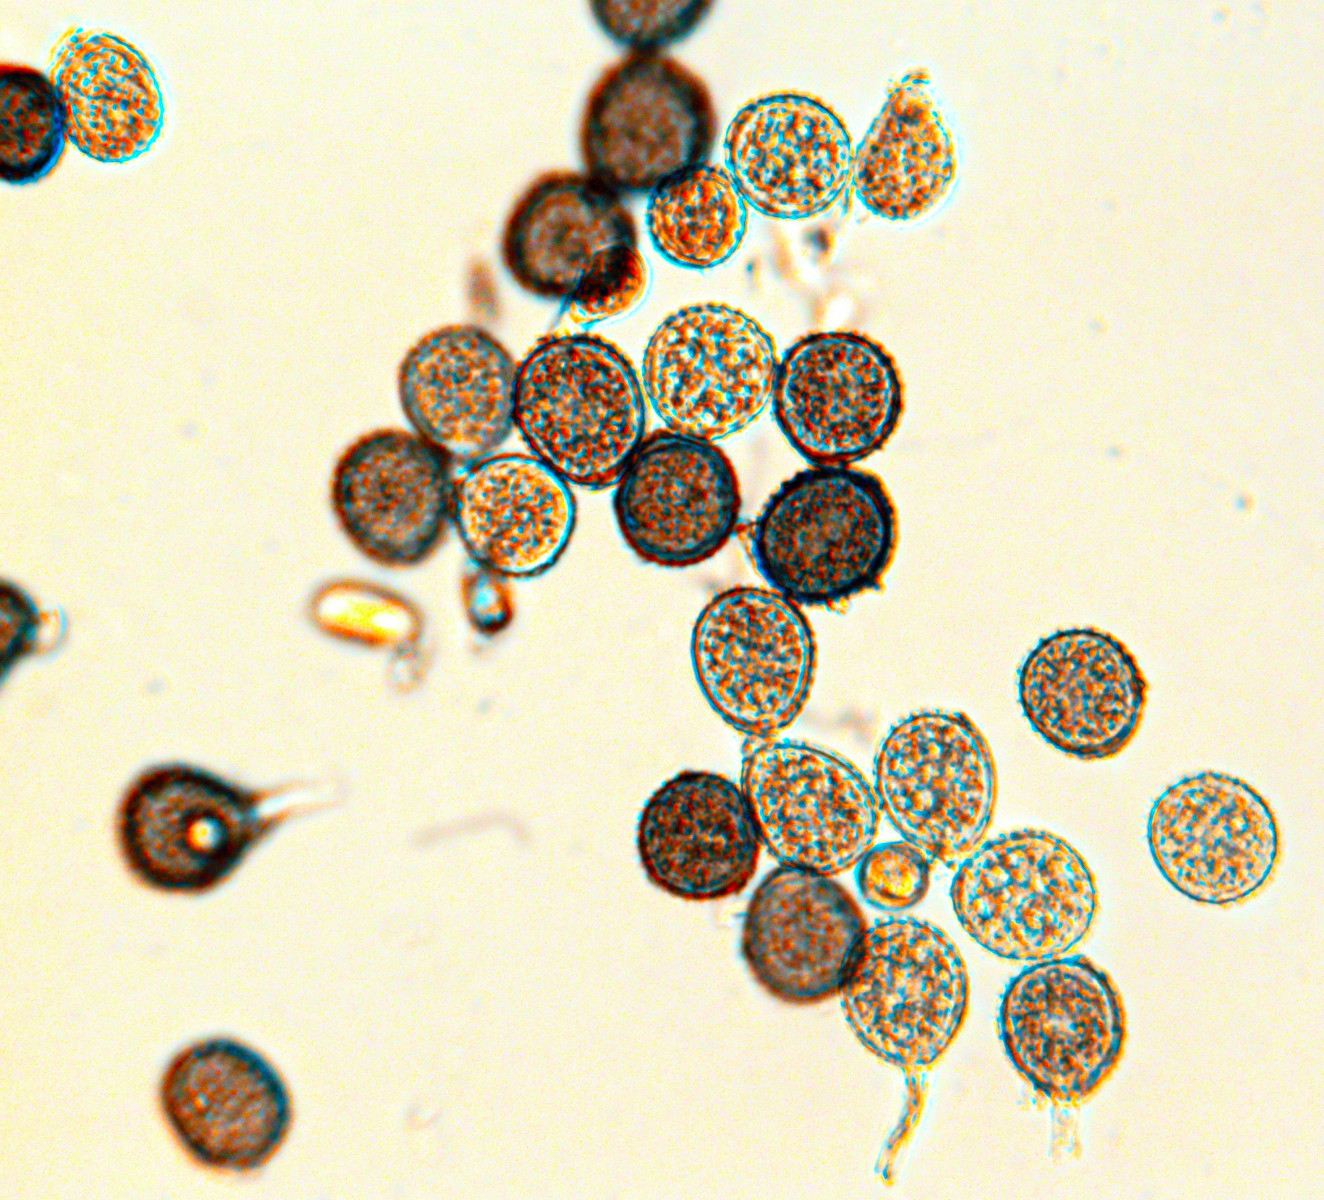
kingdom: Fungi
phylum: Basidiomycota
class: Pucciniomycetes
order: Pucciniales
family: Pucciniaceae
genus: Puccinia
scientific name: Puccinia lapsanae
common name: Nipplewort rust
